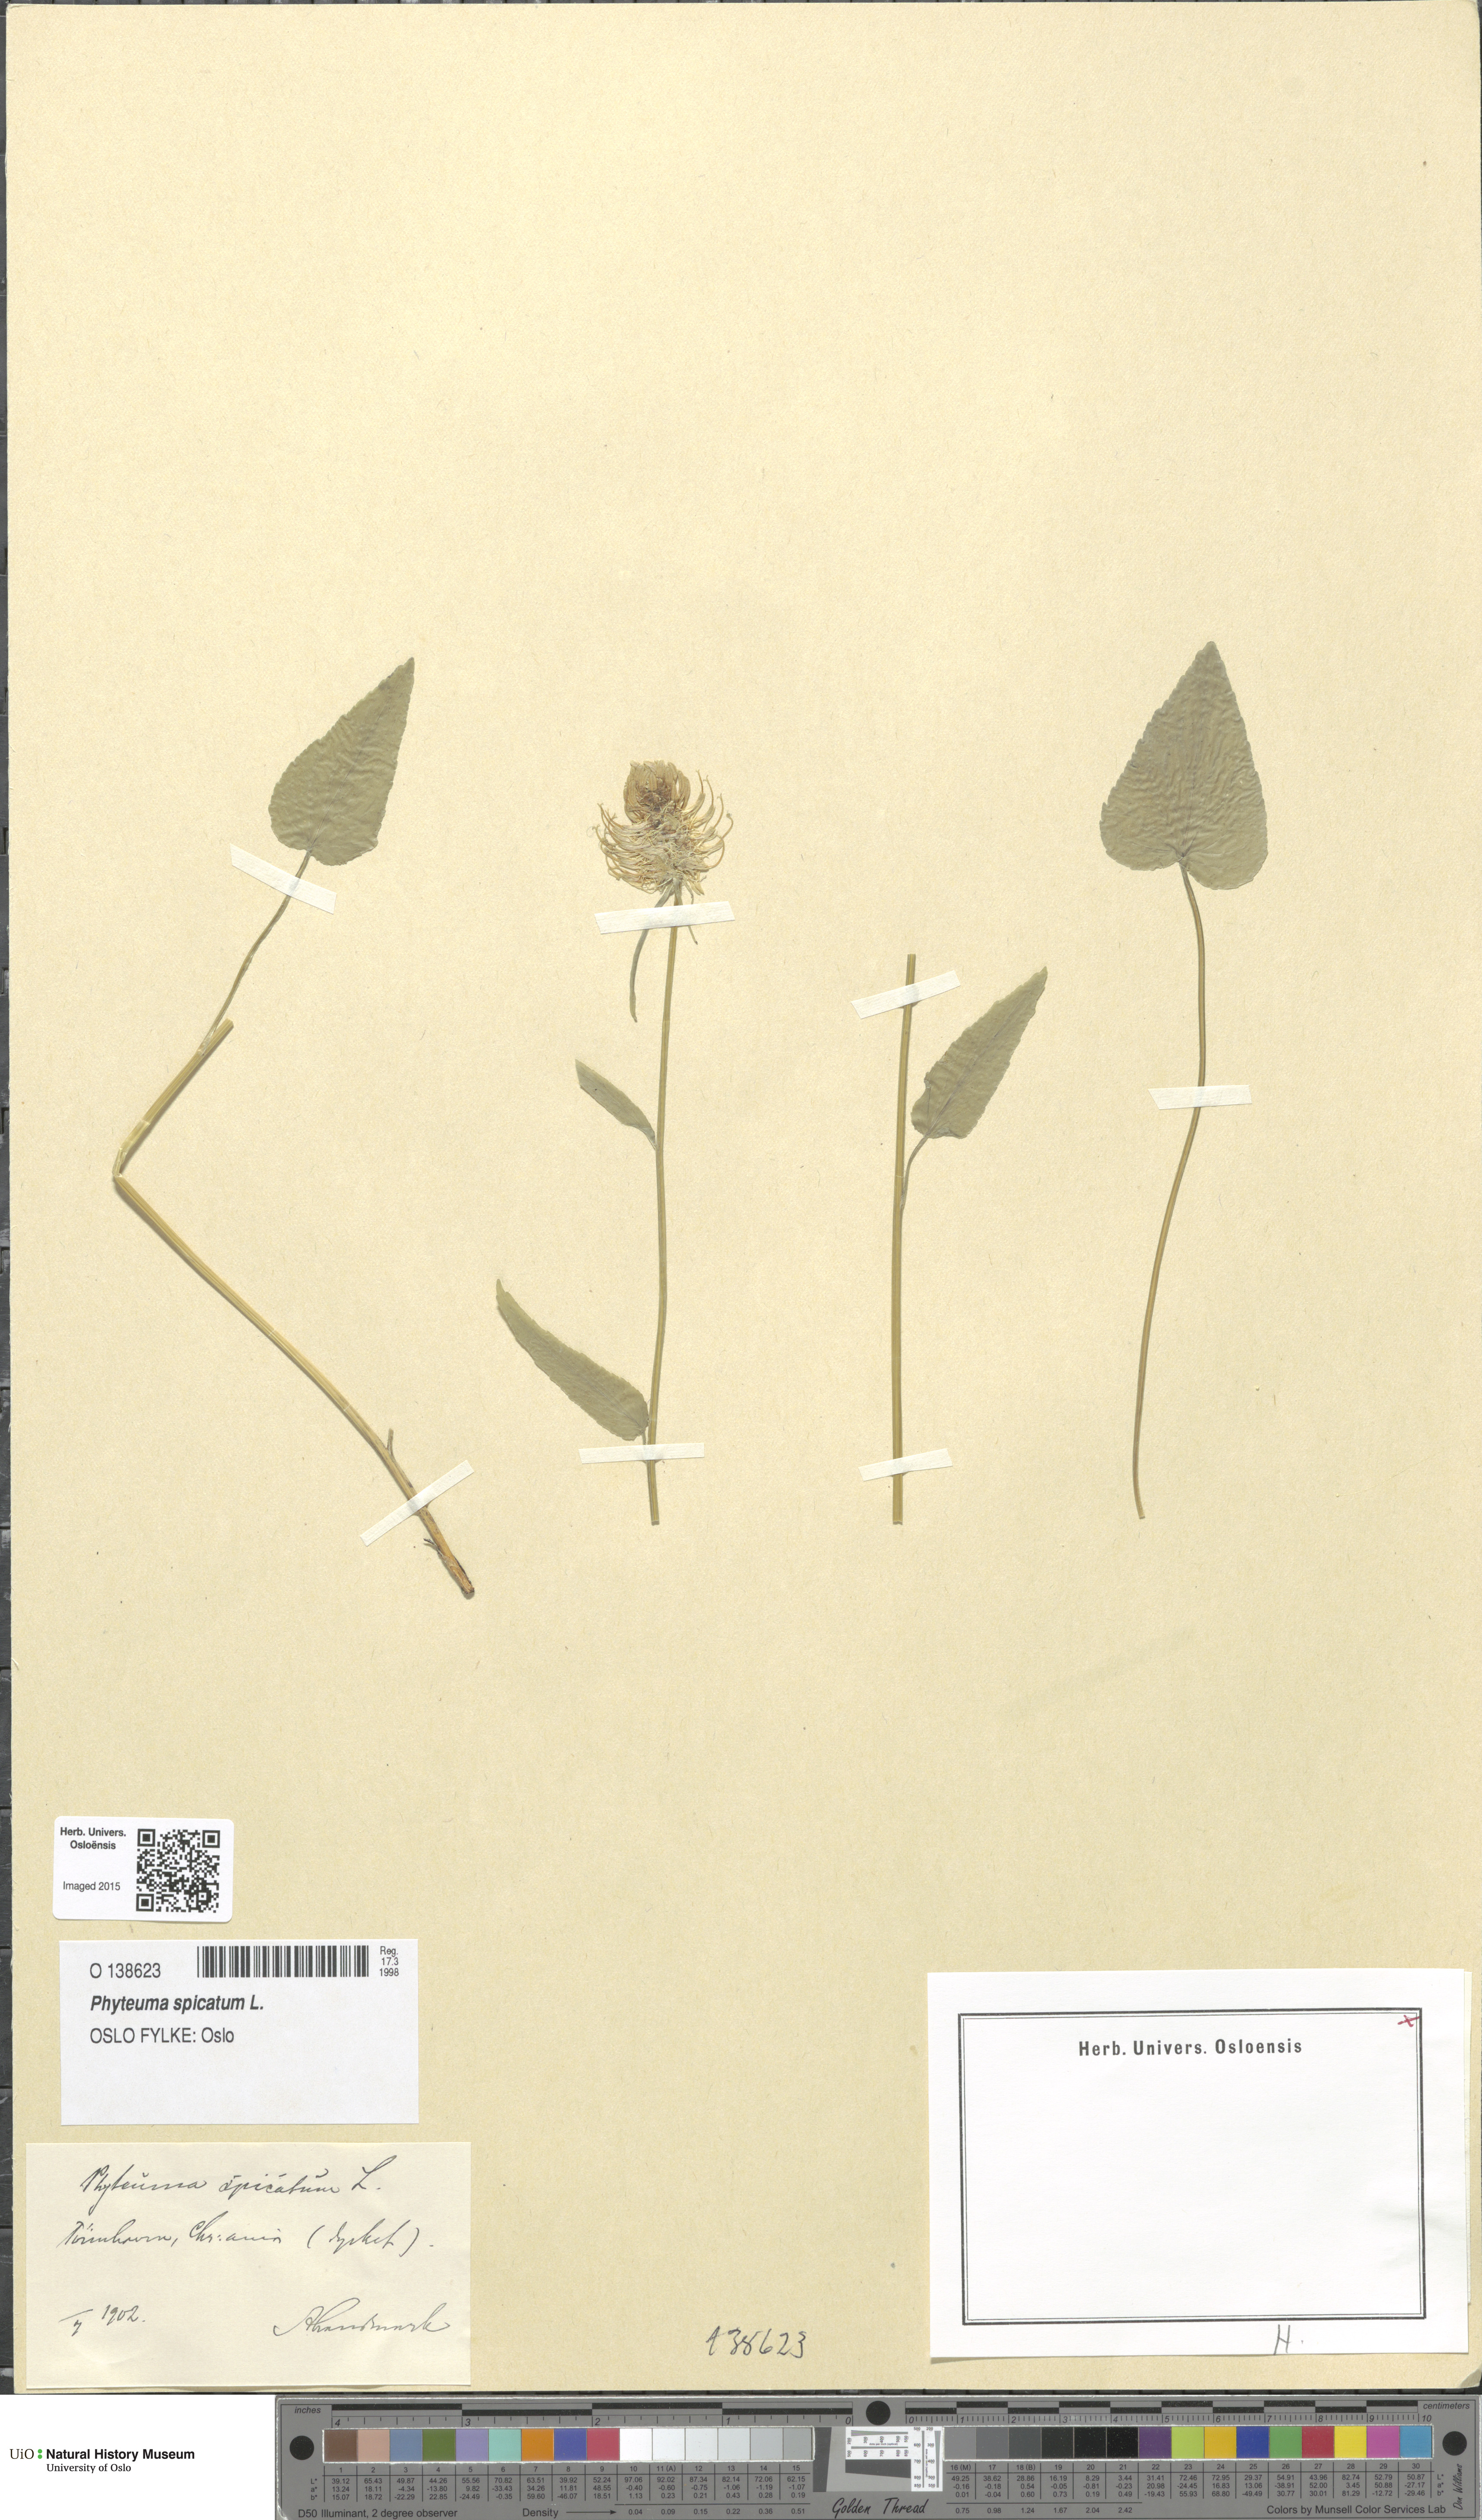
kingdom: Plantae
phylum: Tracheophyta
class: Magnoliopsida
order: Asterales
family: Campanulaceae
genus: Phyteuma
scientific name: Phyteuma spicatum
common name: Spiked rampion
